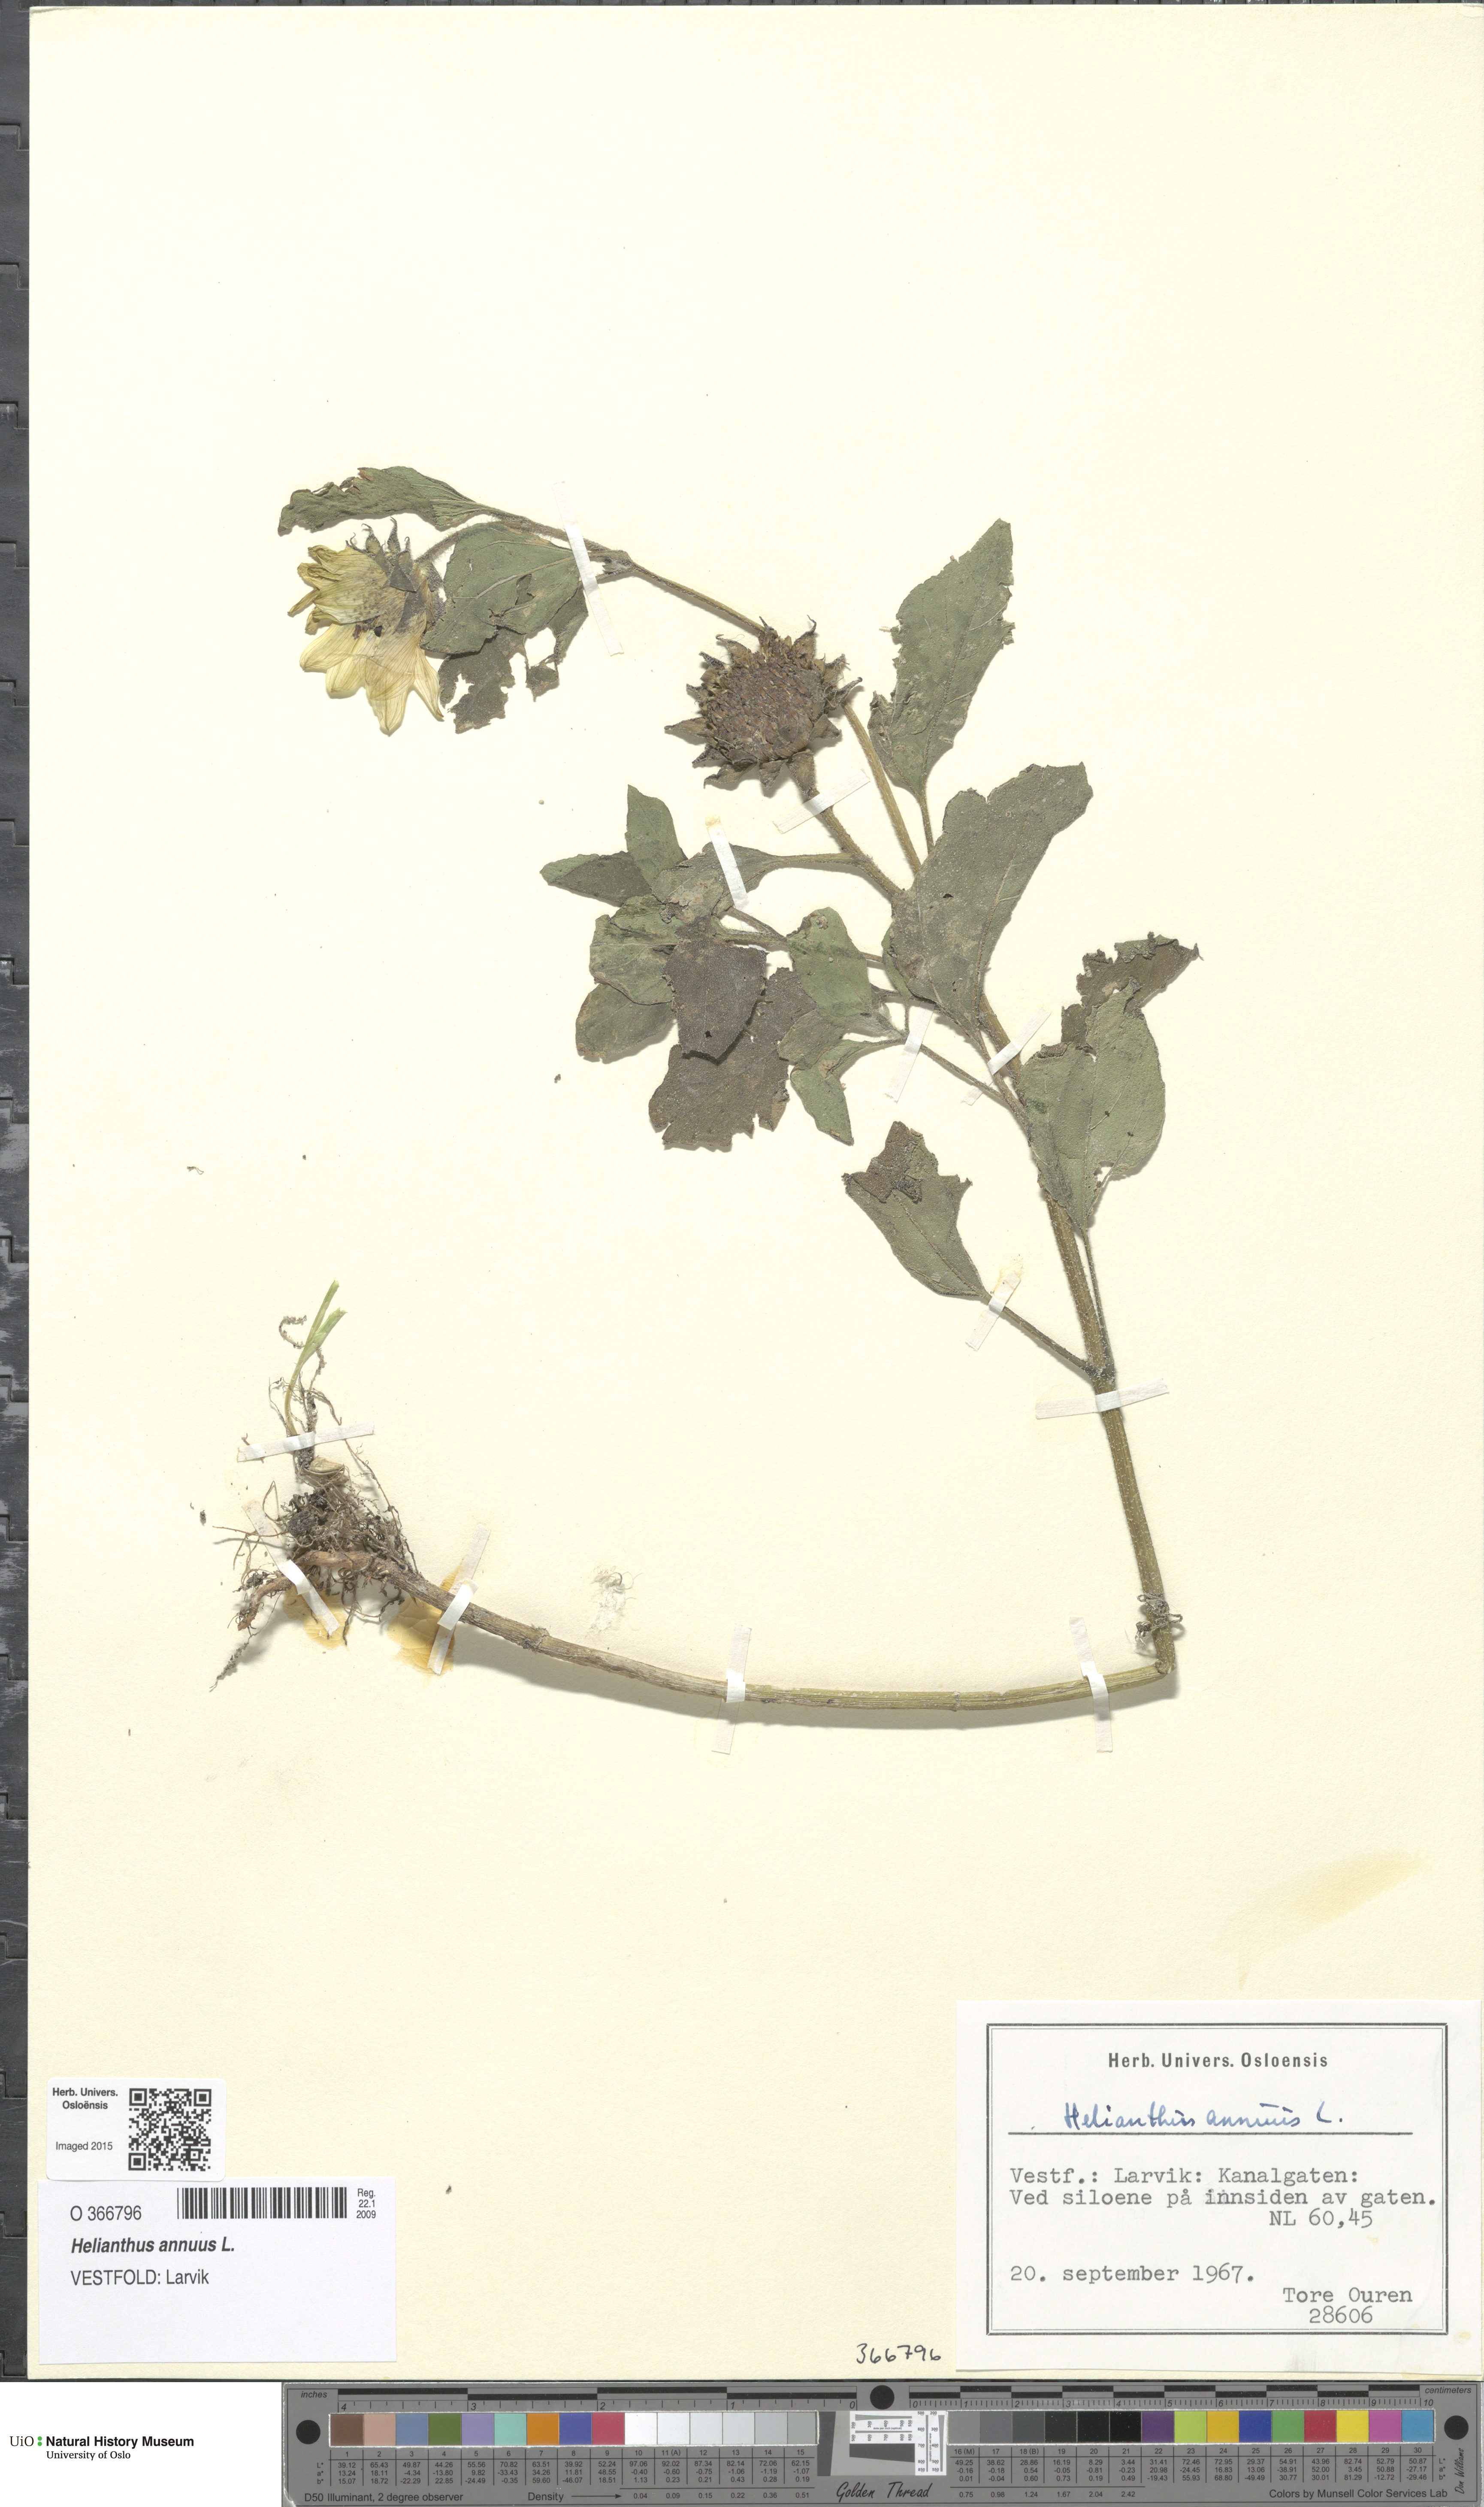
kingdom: Plantae
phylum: Tracheophyta
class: Magnoliopsida
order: Asterales
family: Asteraceae
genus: Helianthus
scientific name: Helianthus annuus
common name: Sunflower
